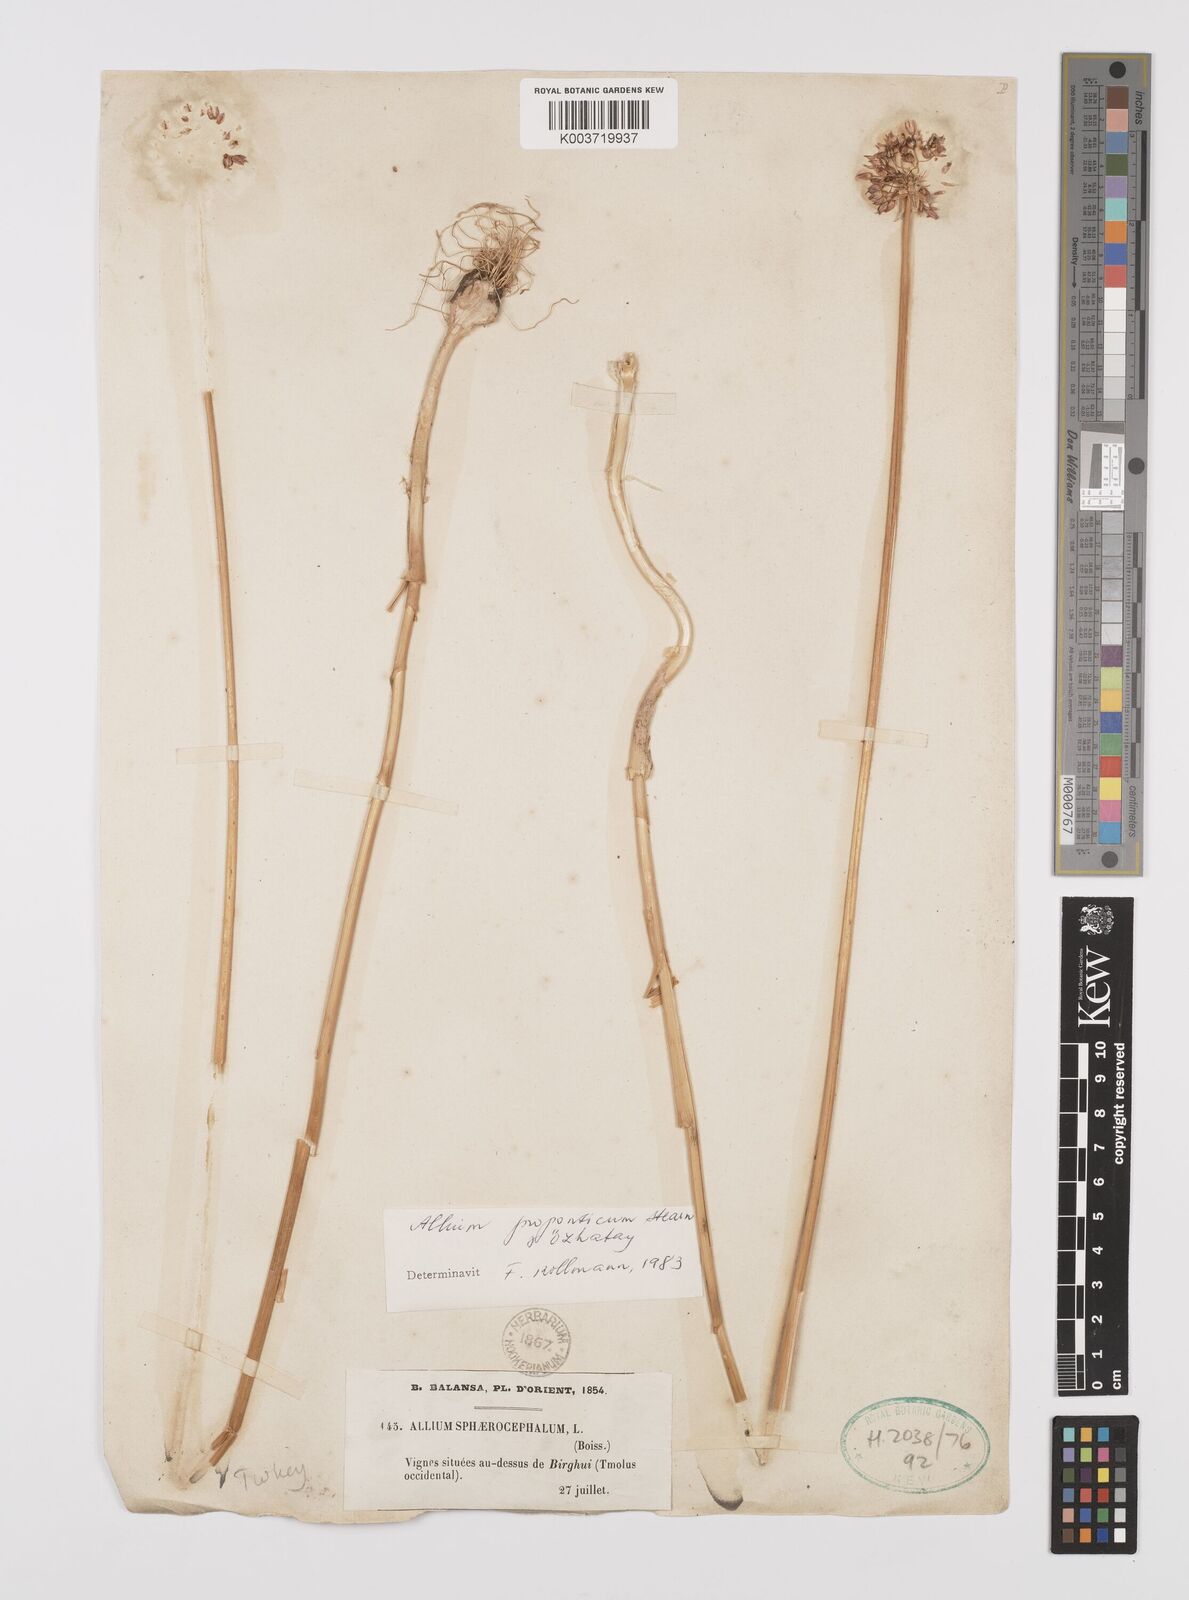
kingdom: Plantae
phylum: Tracheophyta
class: Liliopsida
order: Asparagales
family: Amaryllidaceae
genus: Allium
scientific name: Allium proponticum
